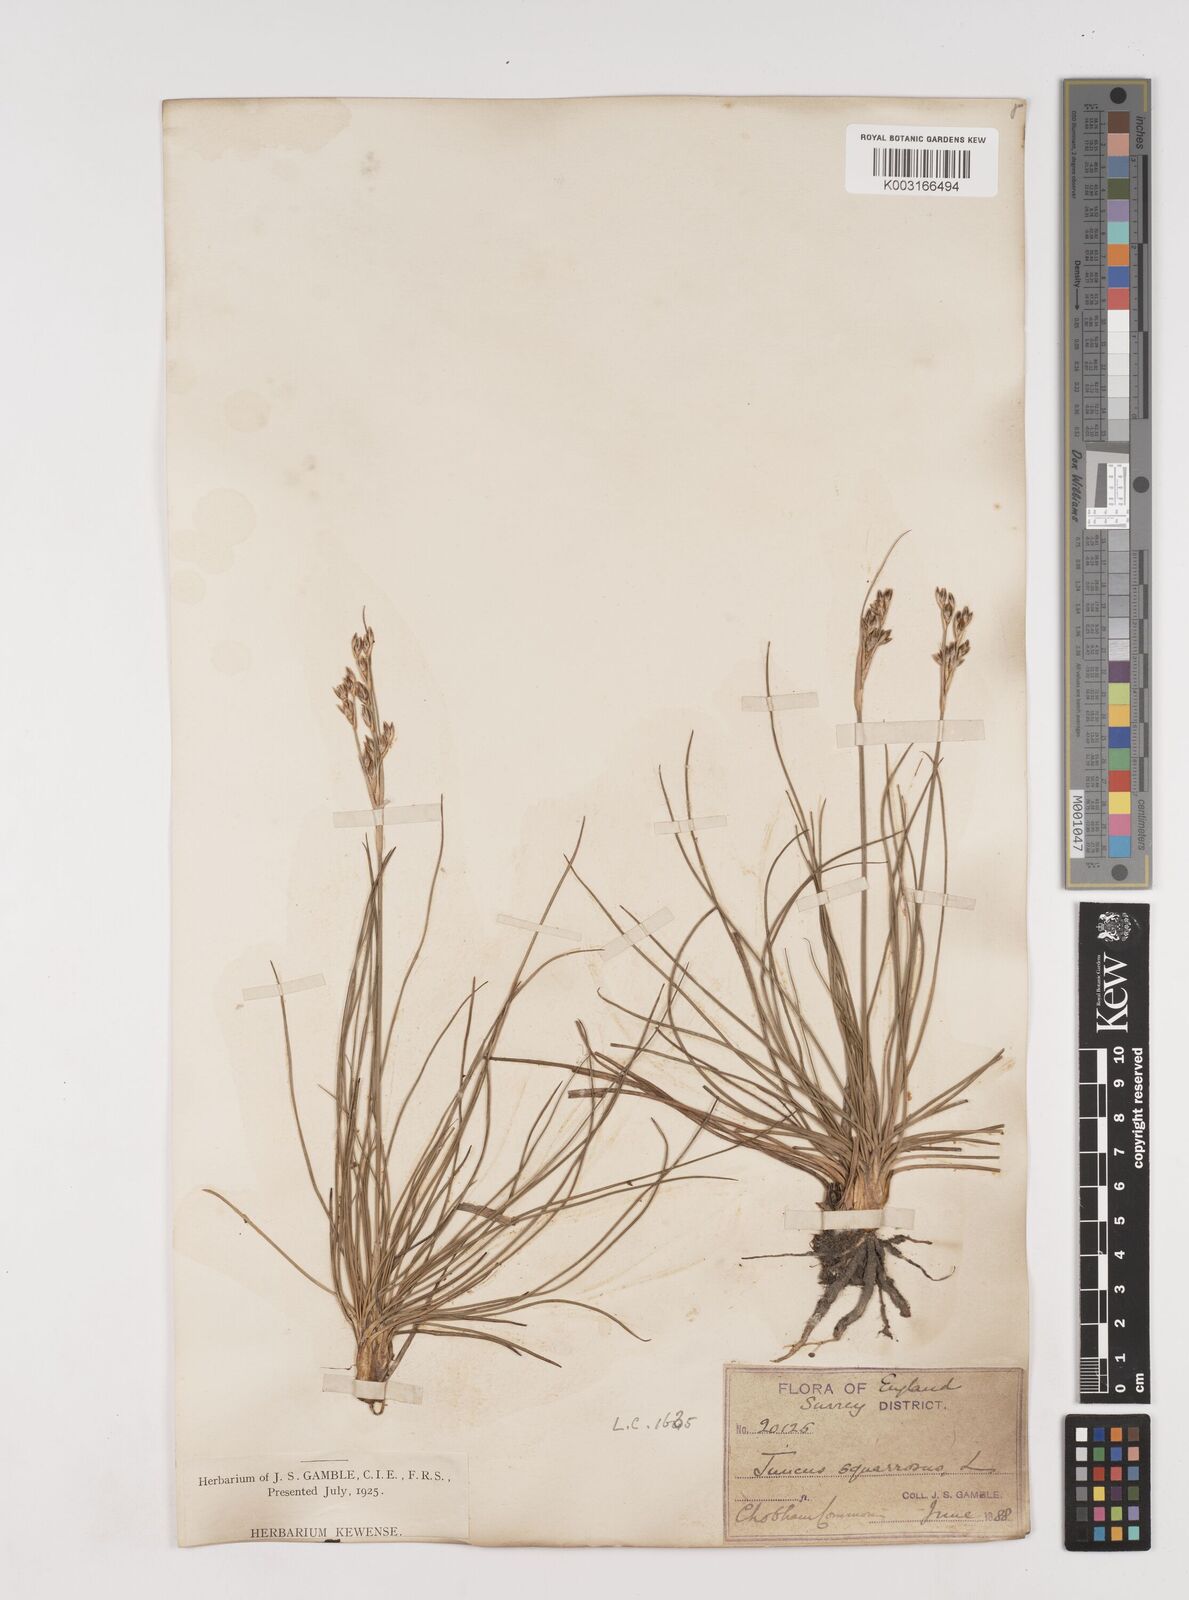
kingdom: Plantae
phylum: Tracheophyta
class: Liliopsida
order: Poales
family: Juncaceae
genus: Juncus
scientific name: Juncus squarrosus
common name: Heath rush
